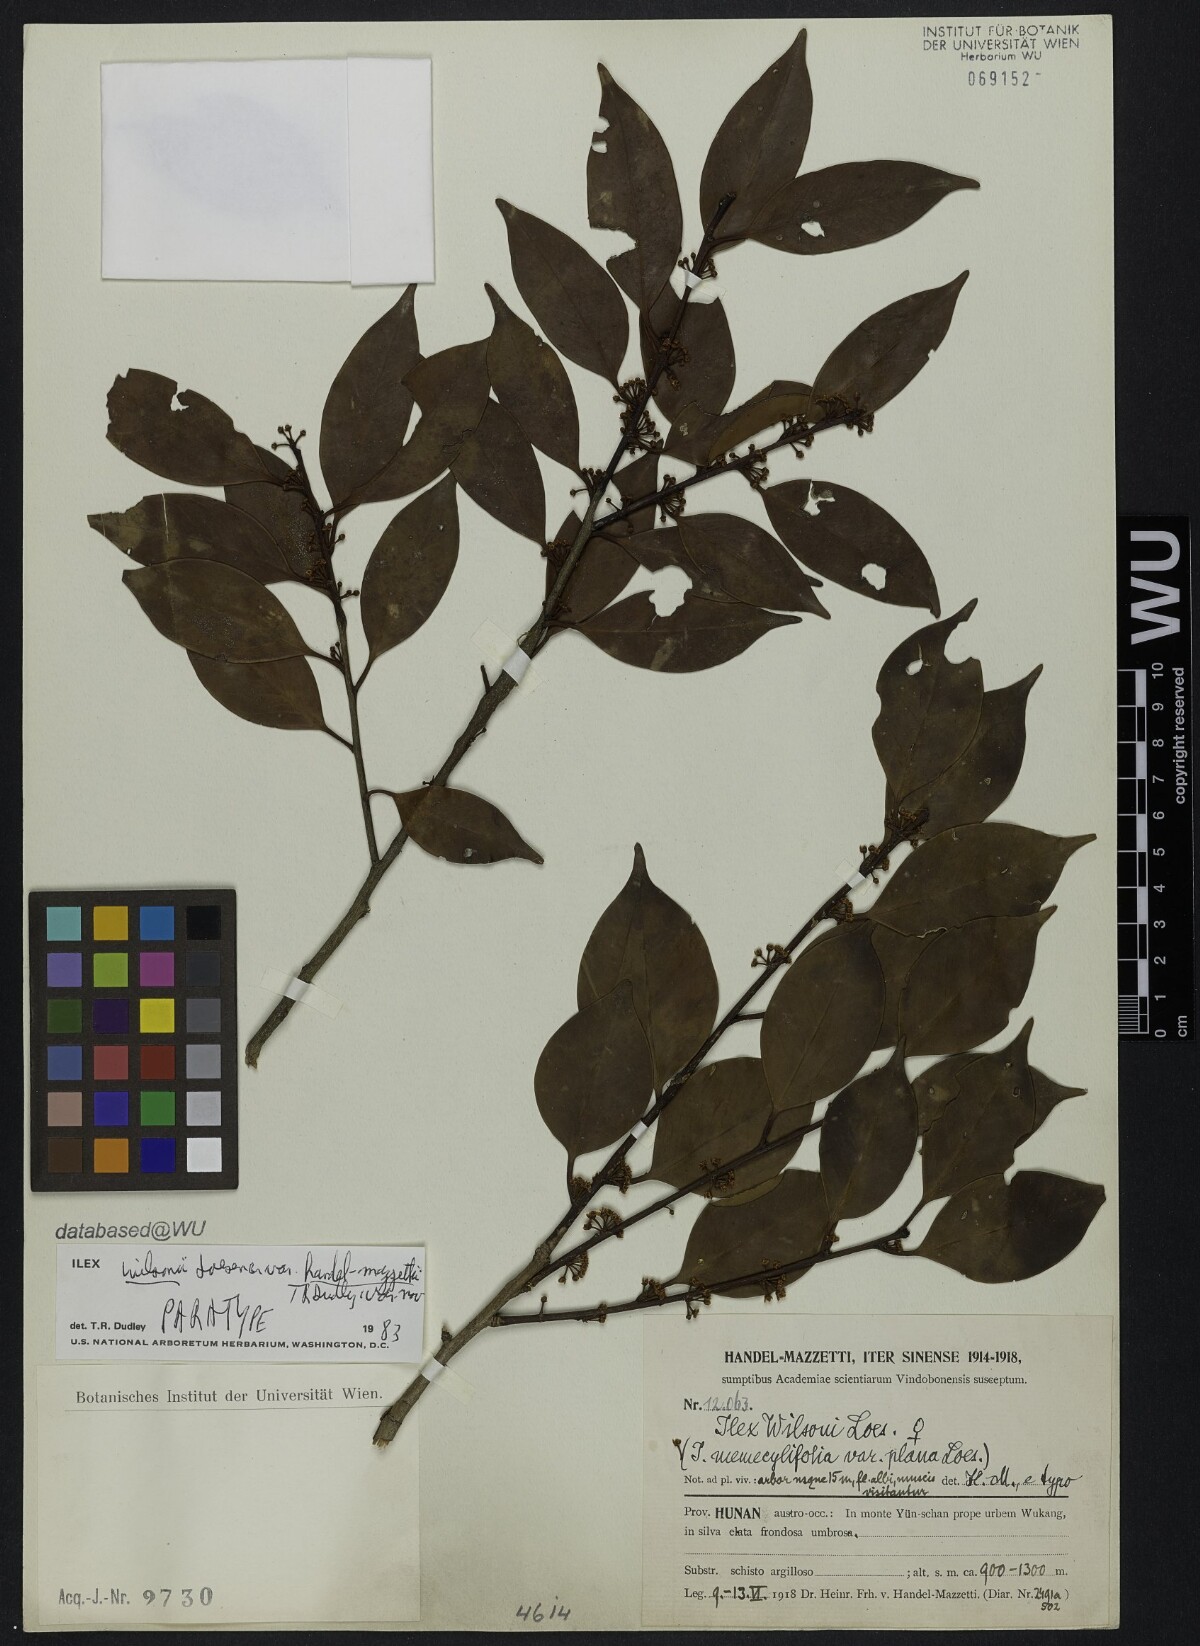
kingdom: Plantae
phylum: Tracheophyta
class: Magnoliopsida
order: Aquifoliales
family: Aquifoliaceae
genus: Ilex
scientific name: Ilex wilsonii
